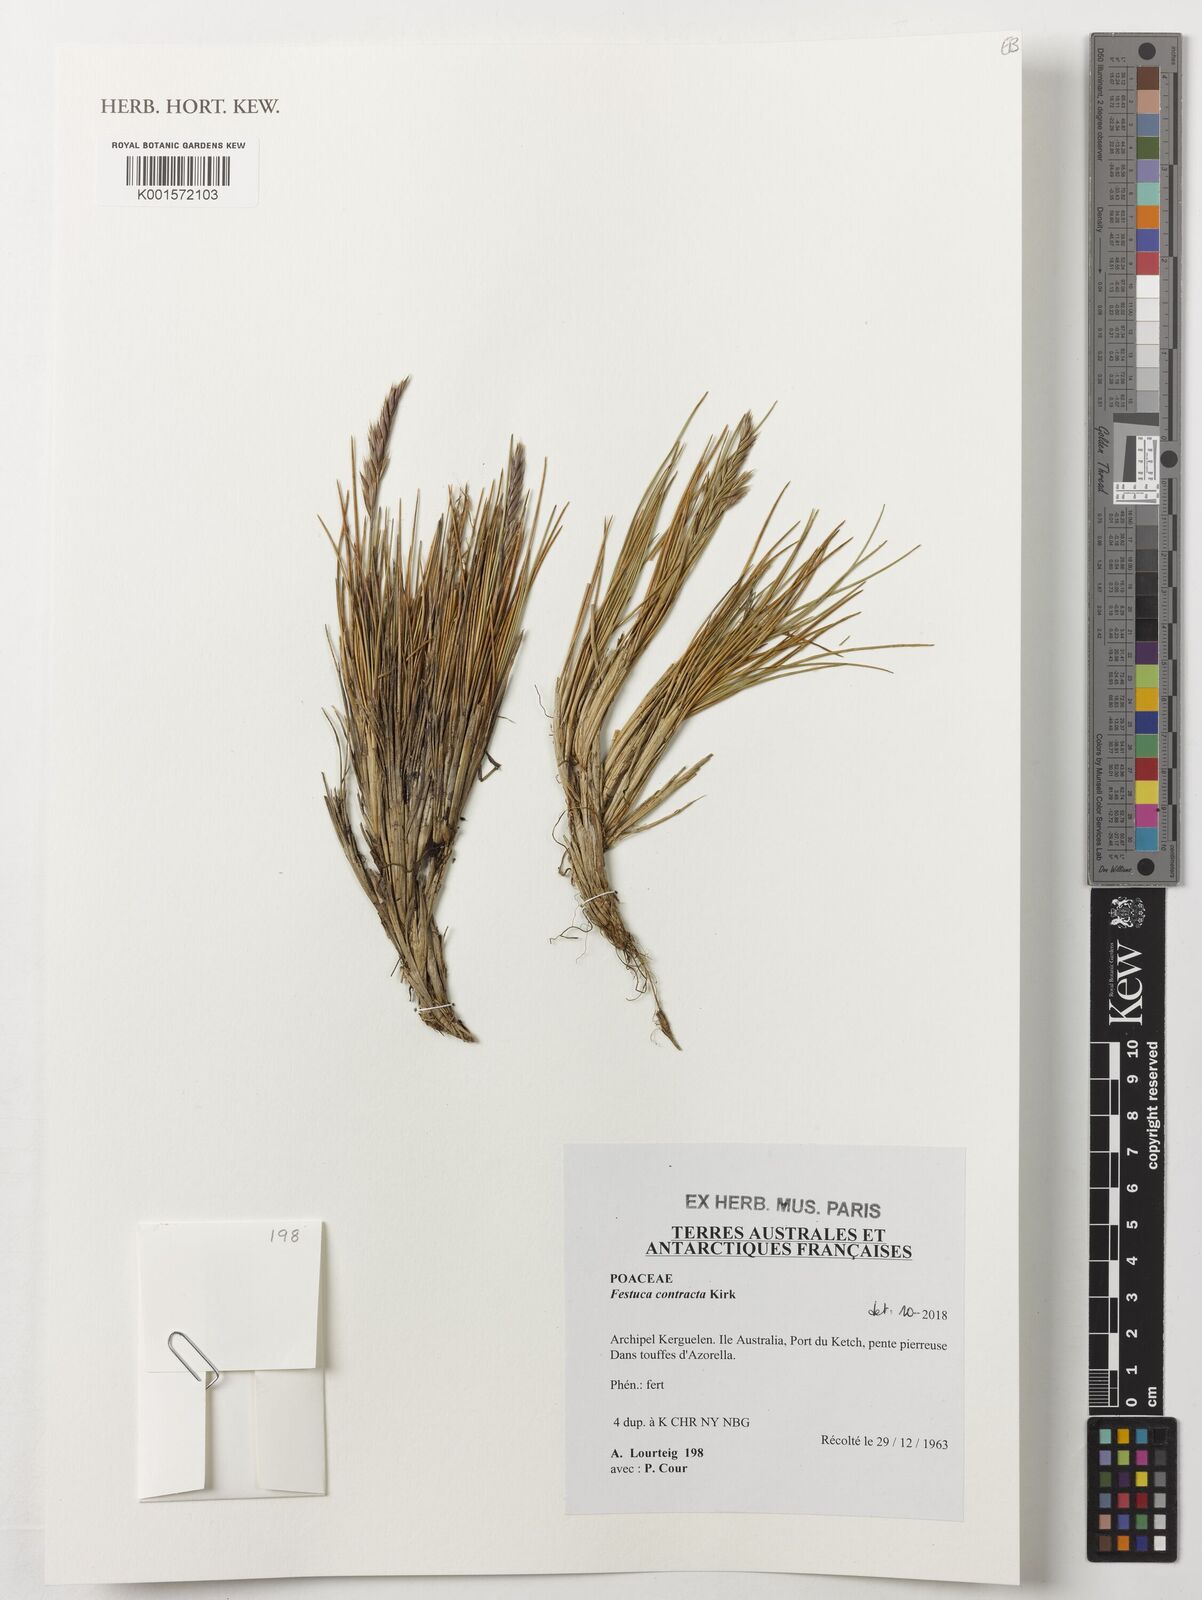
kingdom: Plantae
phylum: Tracheophyta
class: Liliopsida
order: Poales
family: Poaceae
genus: Festuca
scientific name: Festuca contracta
